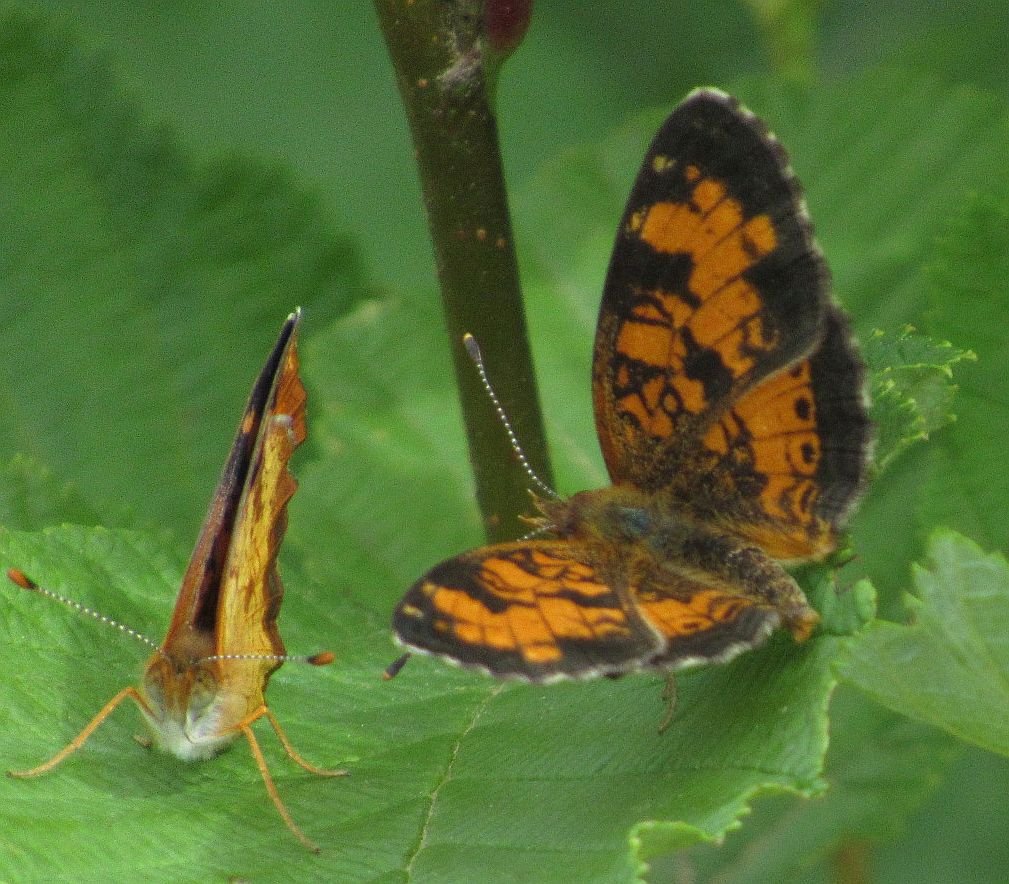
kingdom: Animalia
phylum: Arthropoda
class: Insecta
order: Lepidoptera
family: Nymphalidae
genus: Phyciodes
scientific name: Phyciodes tharos
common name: Northern Crescent
